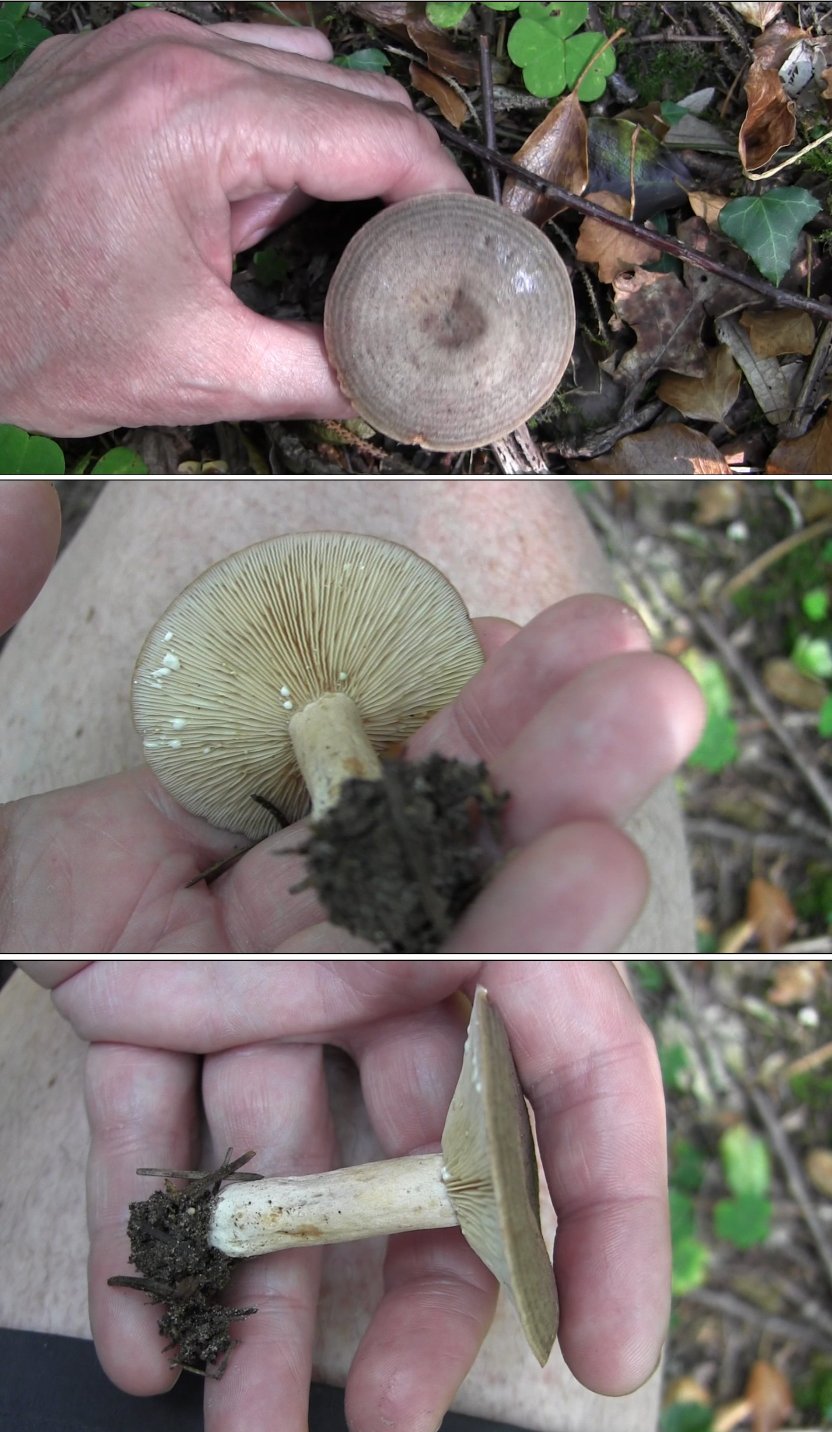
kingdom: Fungi
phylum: Basidiomycota
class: Agaricomycetes
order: Russulales
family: Russulaceae
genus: Lactarius
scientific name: Lactarius circellatus
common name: avnbøg-mælkehat
